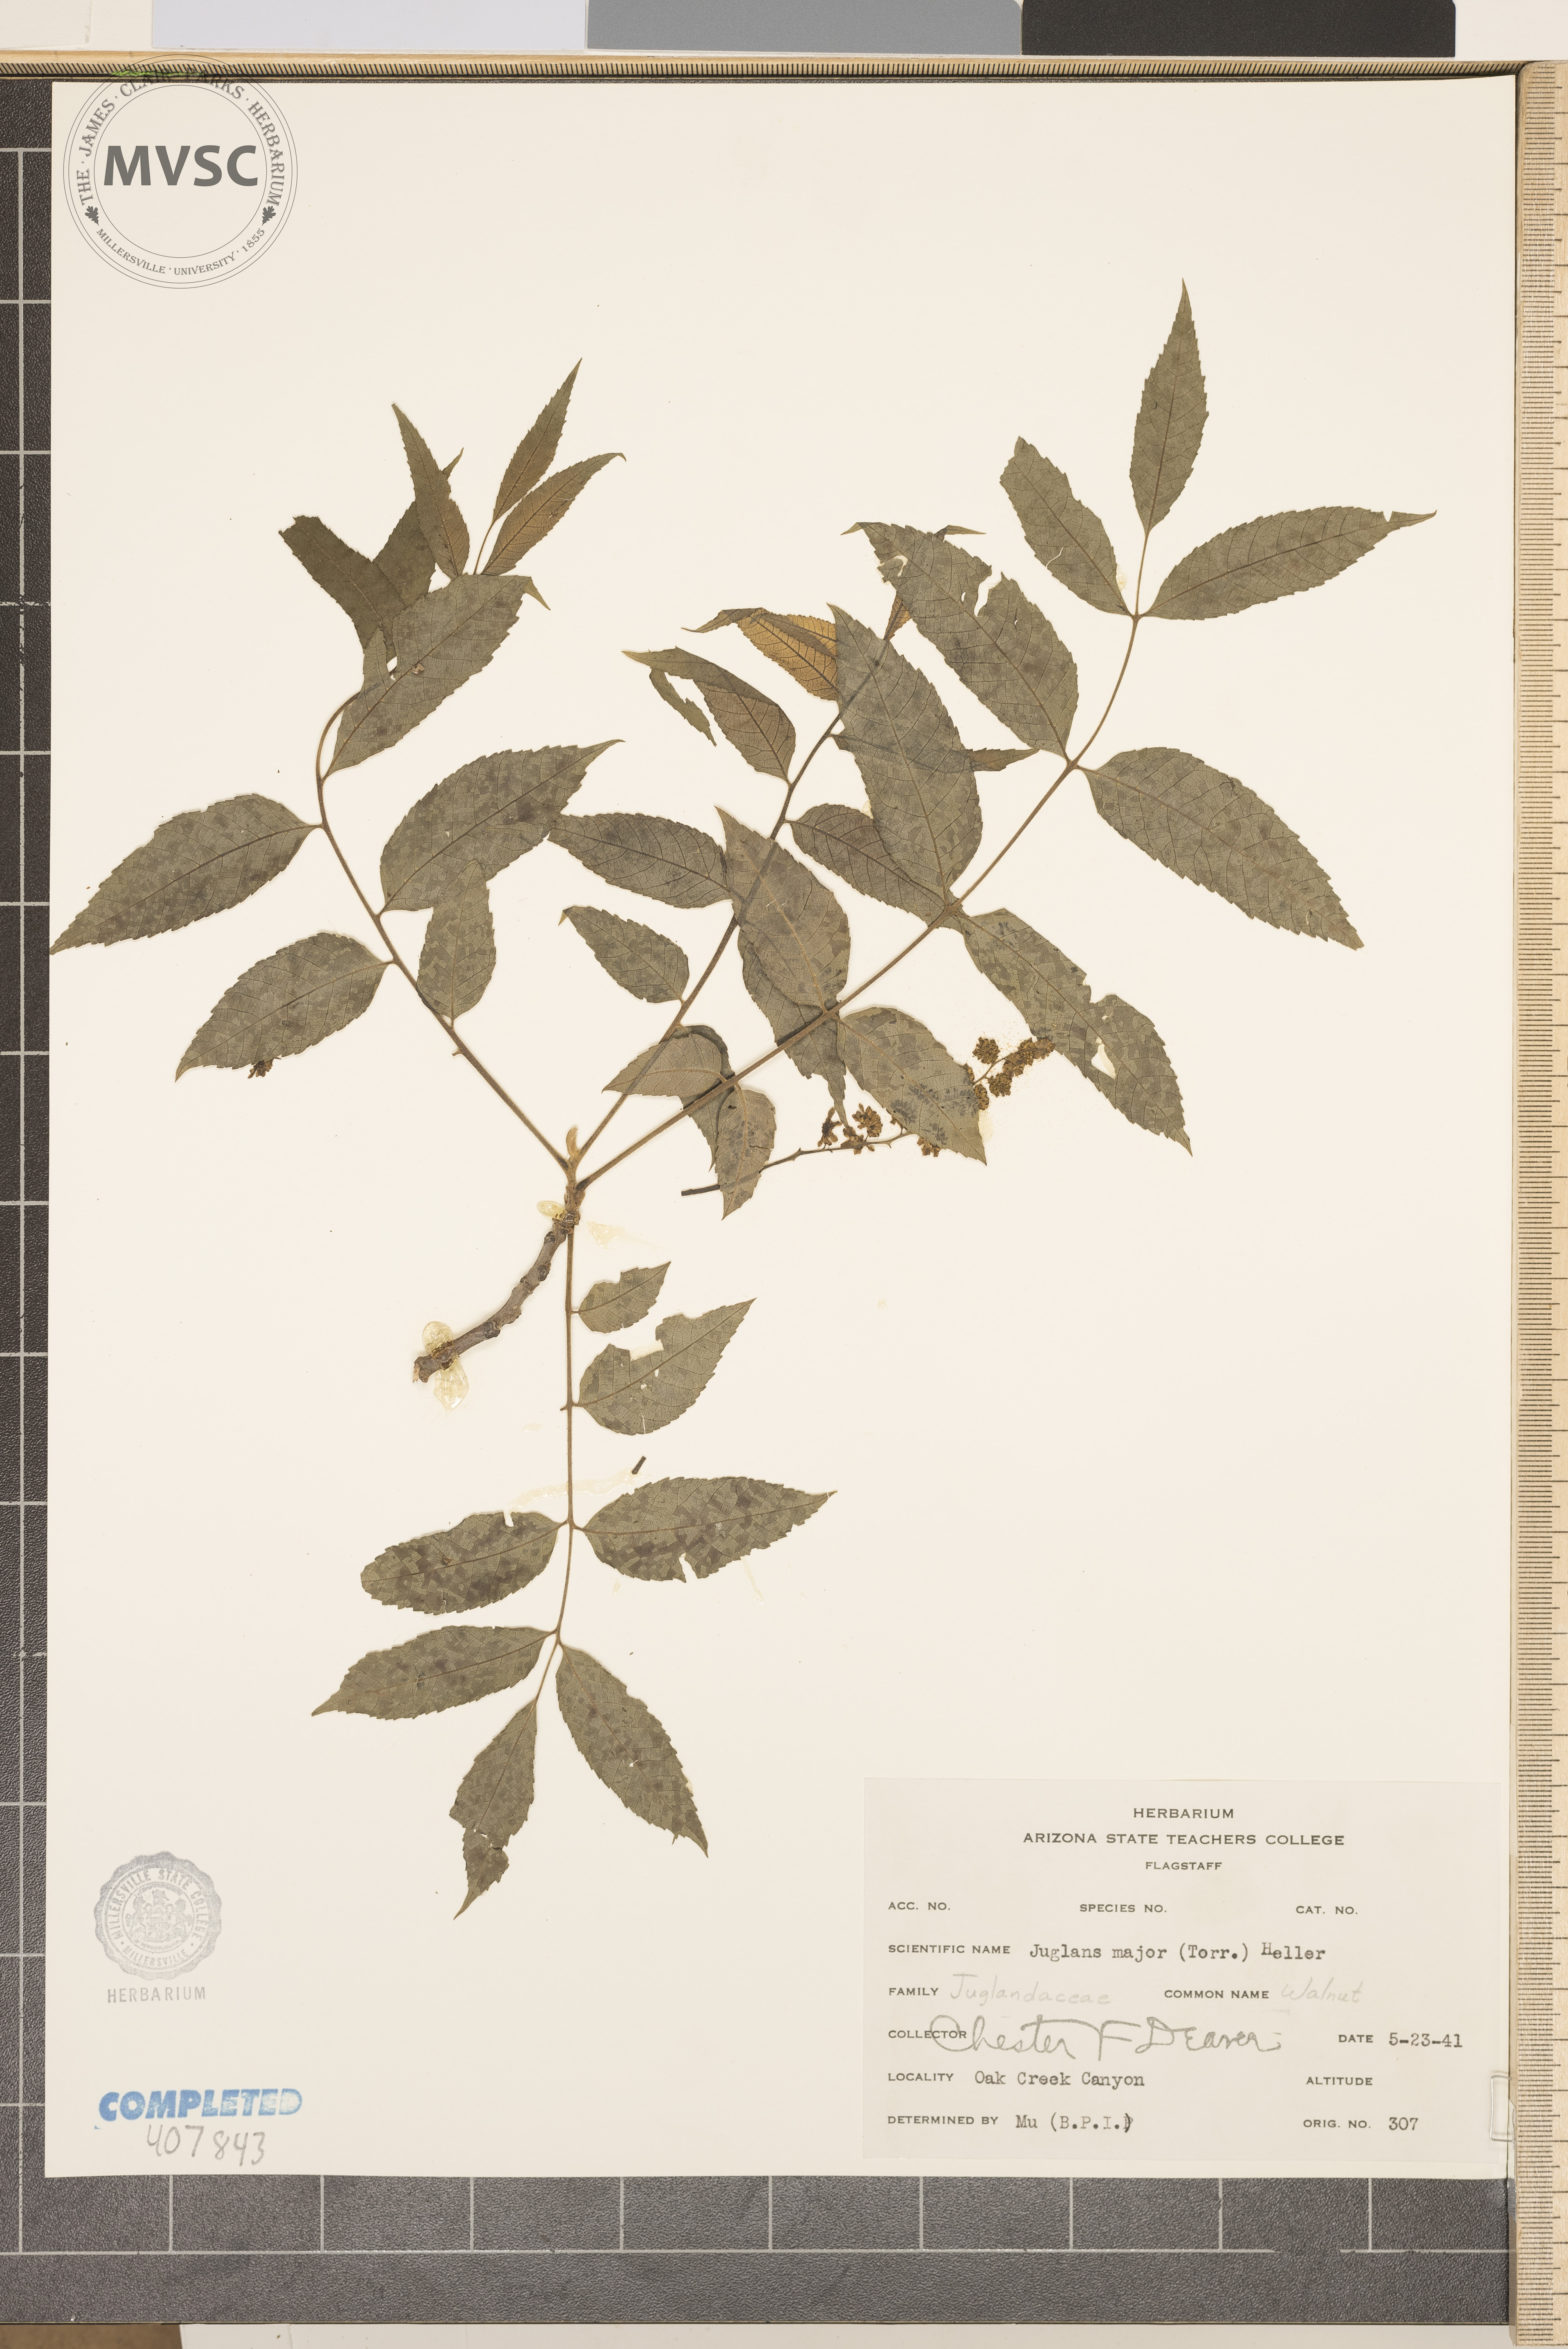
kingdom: Plantae
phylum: Tracheophyta
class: Magnoliopsida
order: Fagales
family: Juglandaceae
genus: Juglans
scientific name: Juglans major
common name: Arizona walnut
